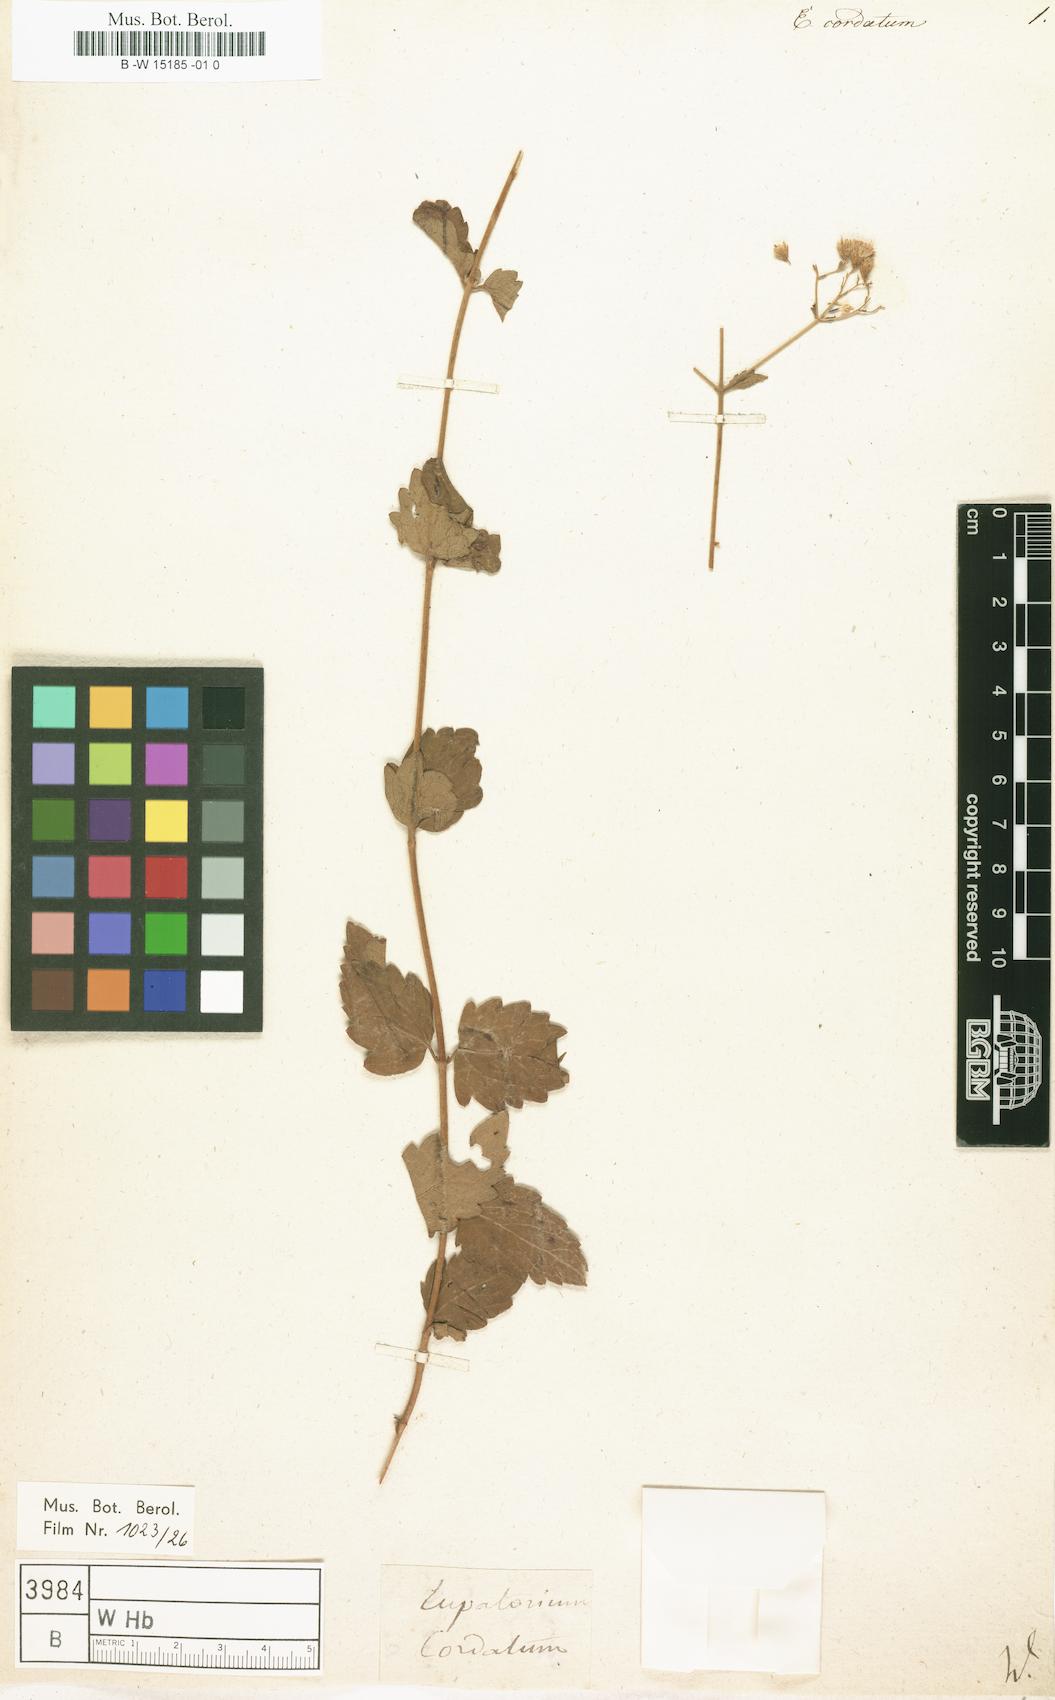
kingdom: Plantae
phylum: Tracheophyta
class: Magnoliopsida
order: Asterales
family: Asteraceae
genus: Eupatorium
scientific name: Eupatorium cordatum
